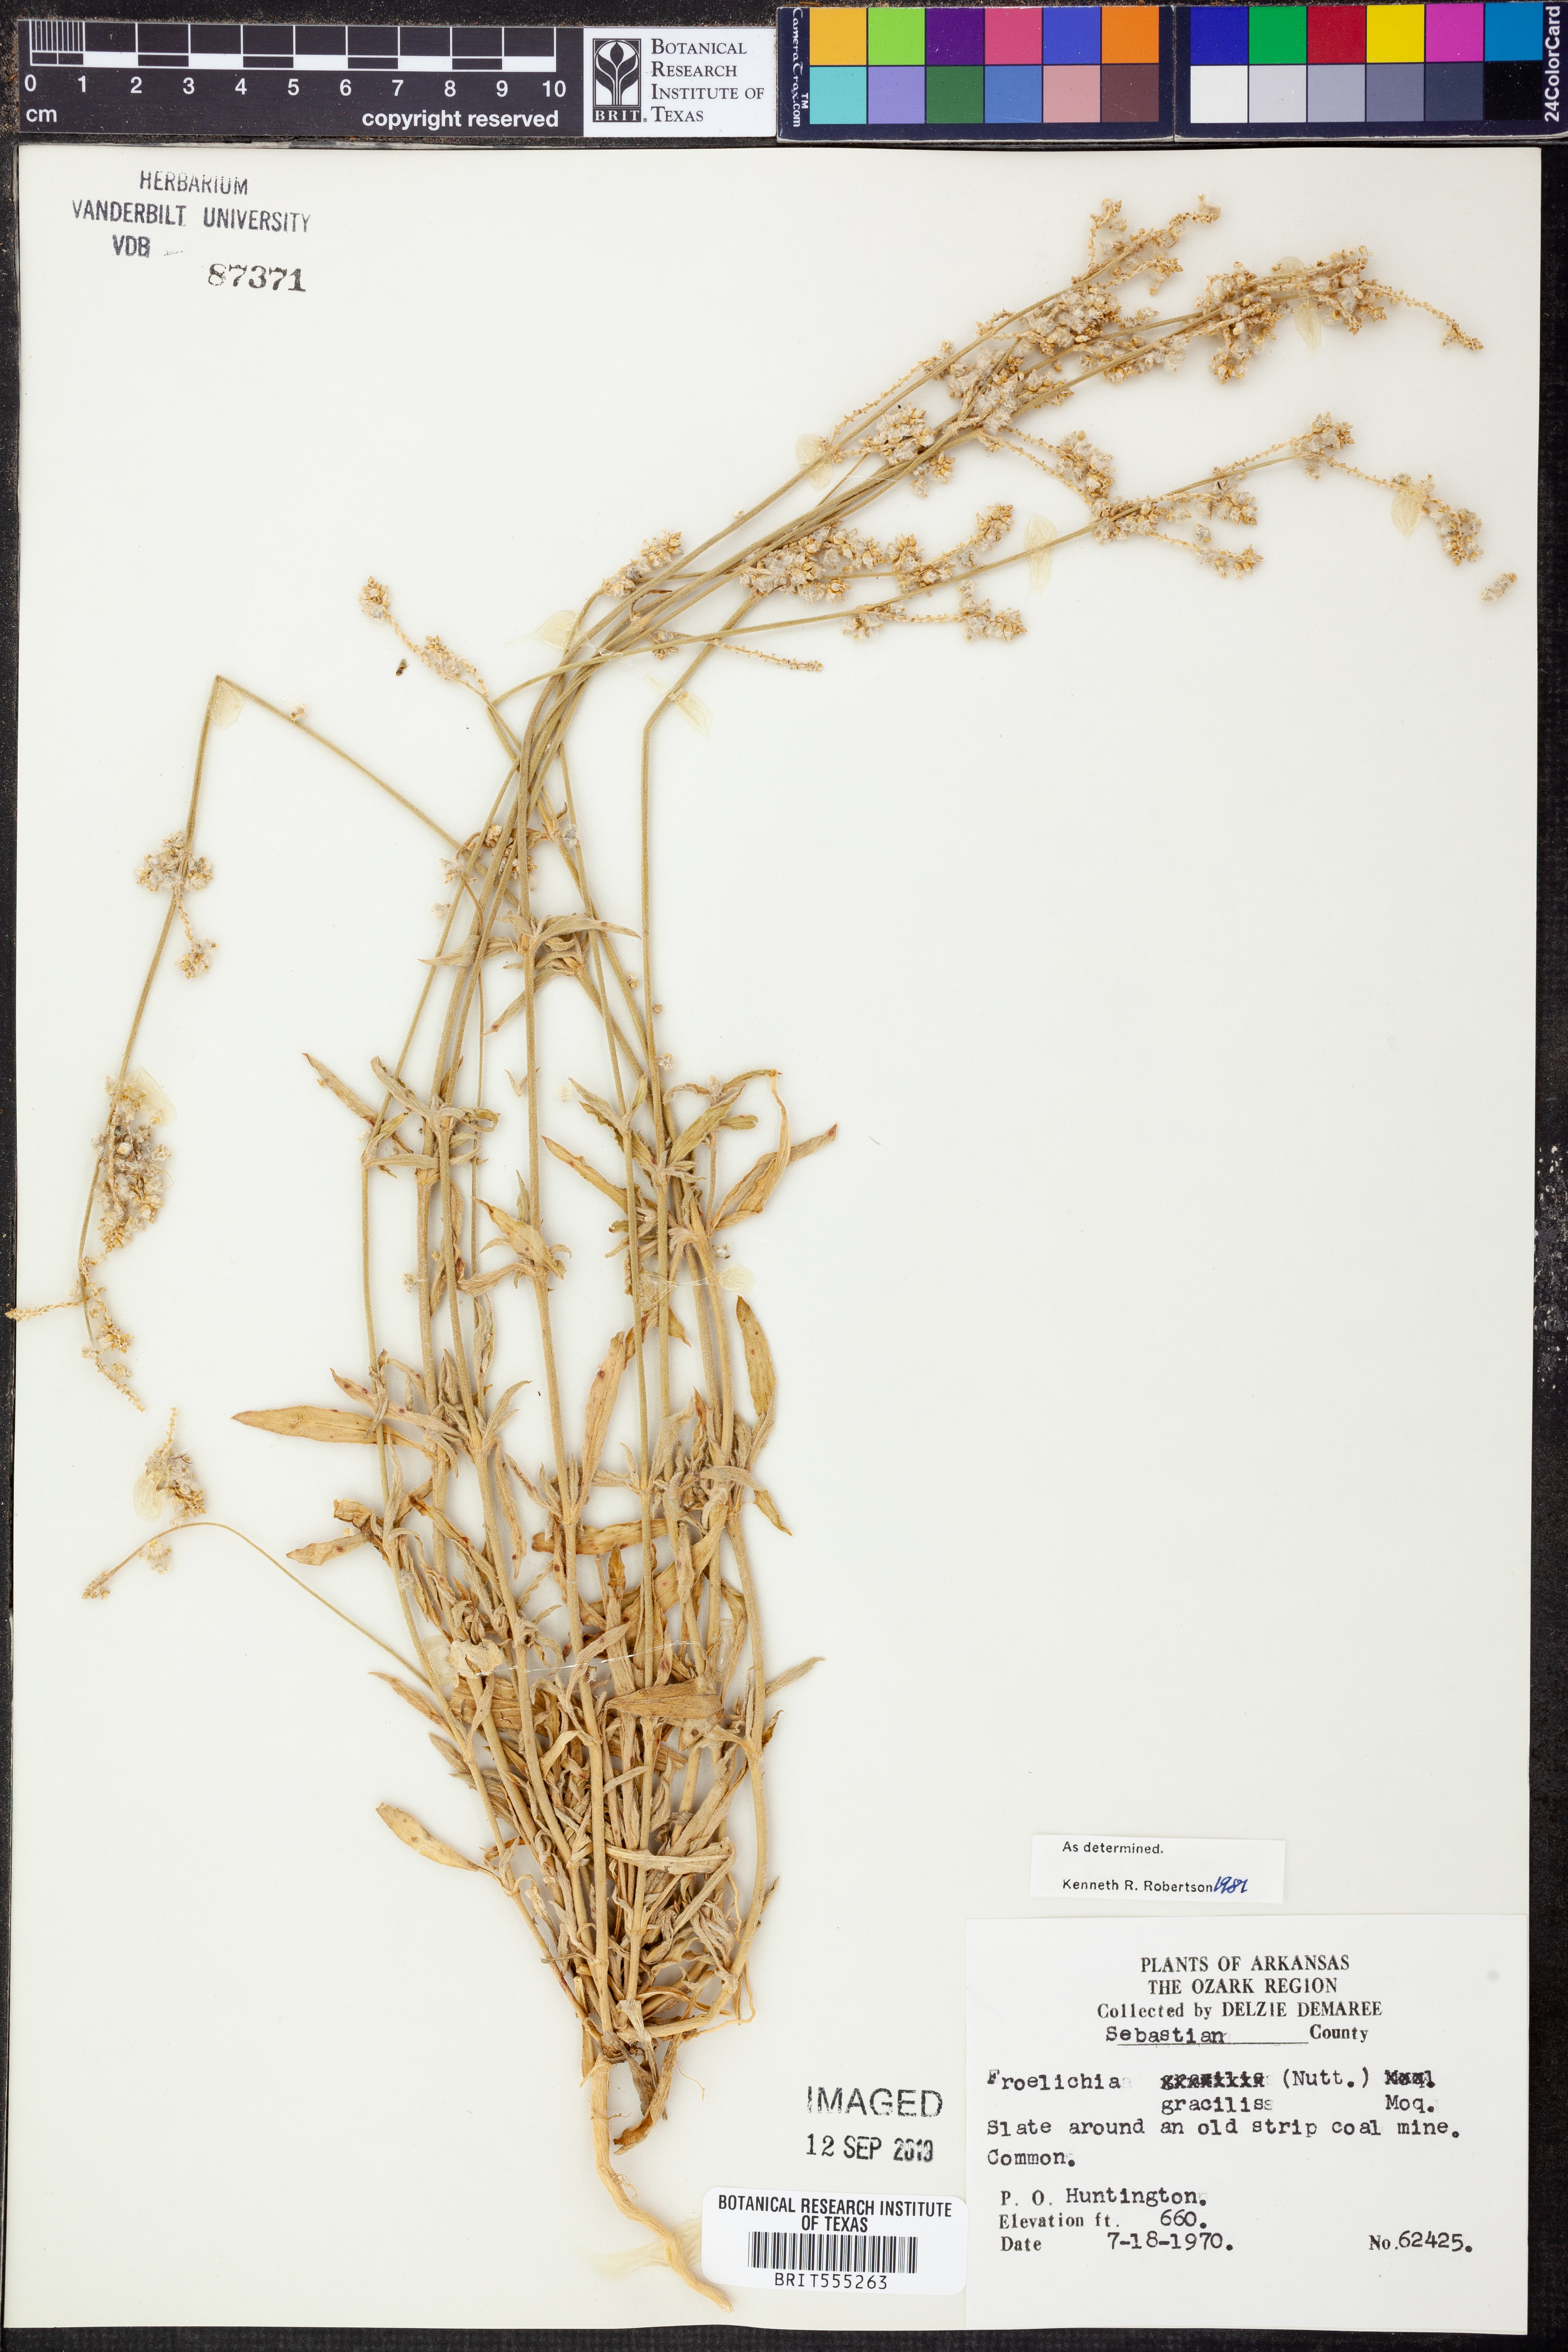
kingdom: Plantae
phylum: Tracheophyta
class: Magnoliopsida
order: Caryophyllales
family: Amaranthaceae
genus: Froelichia
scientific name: Froelichia gracilis
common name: Slender cottonweed
